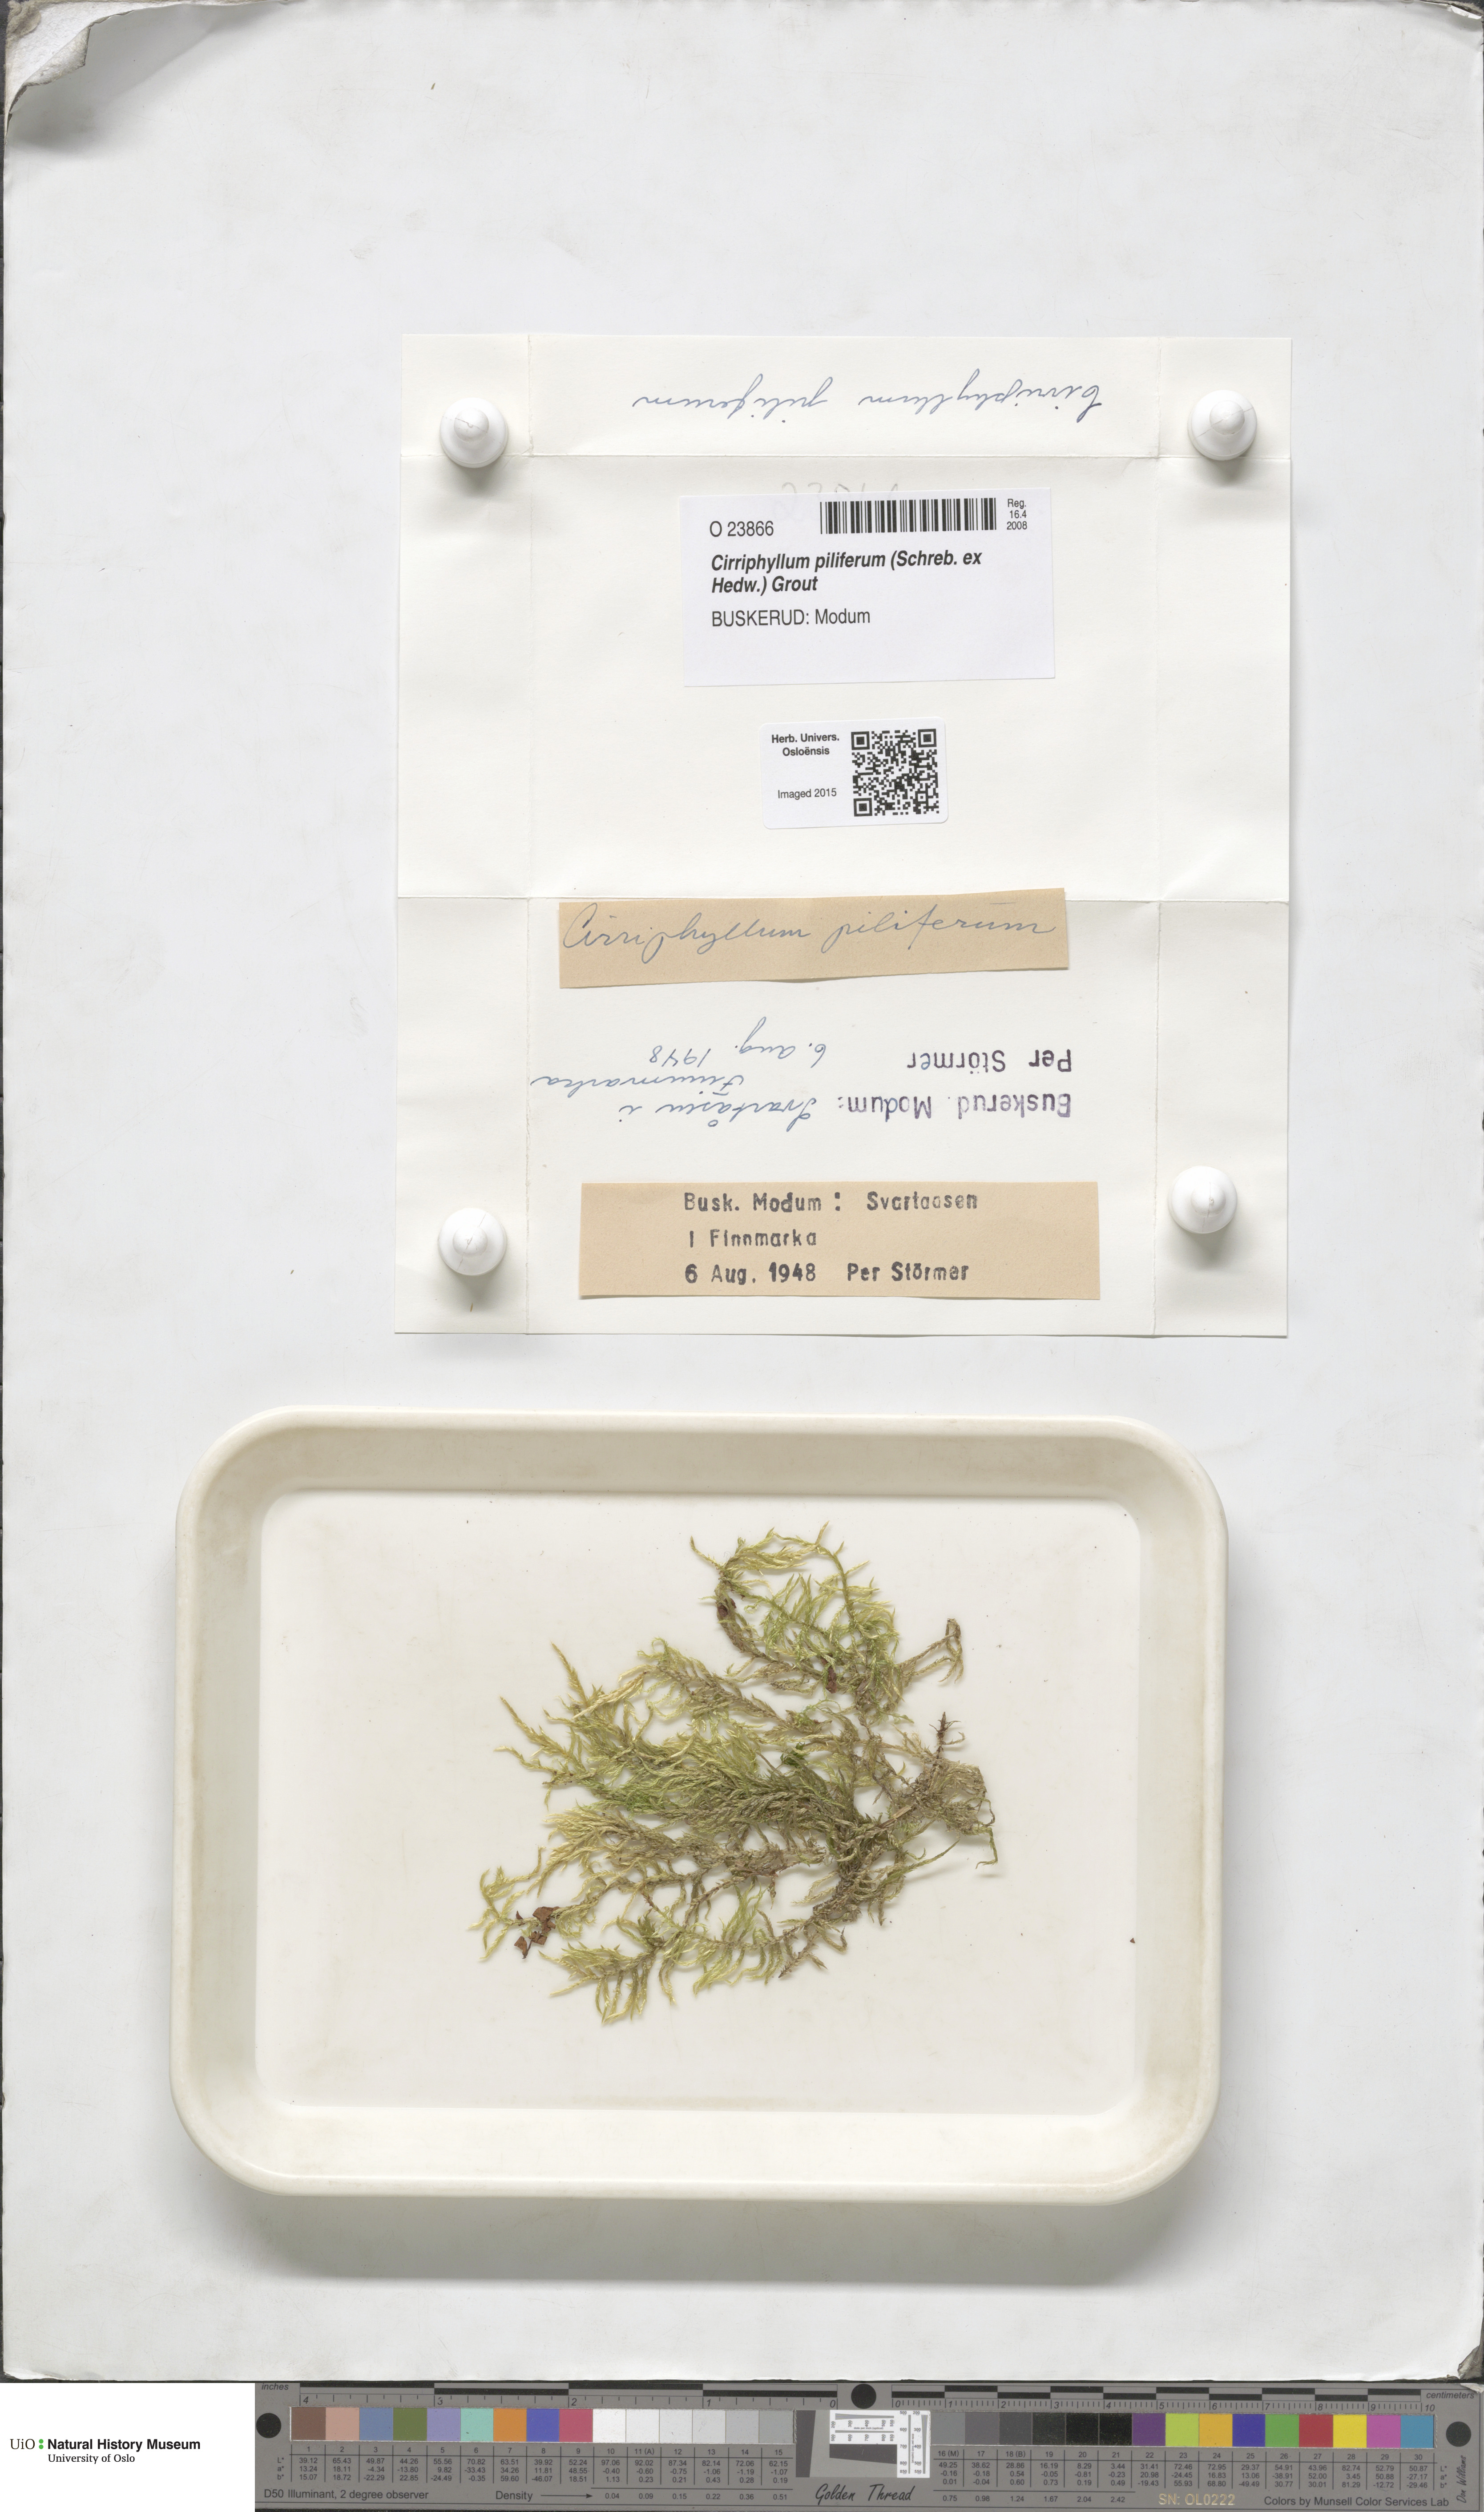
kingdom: Plantae
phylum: Bryophyta
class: Bryopsida
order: Hypnales
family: Brachytheciaceae
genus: Cirriphyllum
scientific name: Cirriphyllum piliferum
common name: Hair-pointed moss
